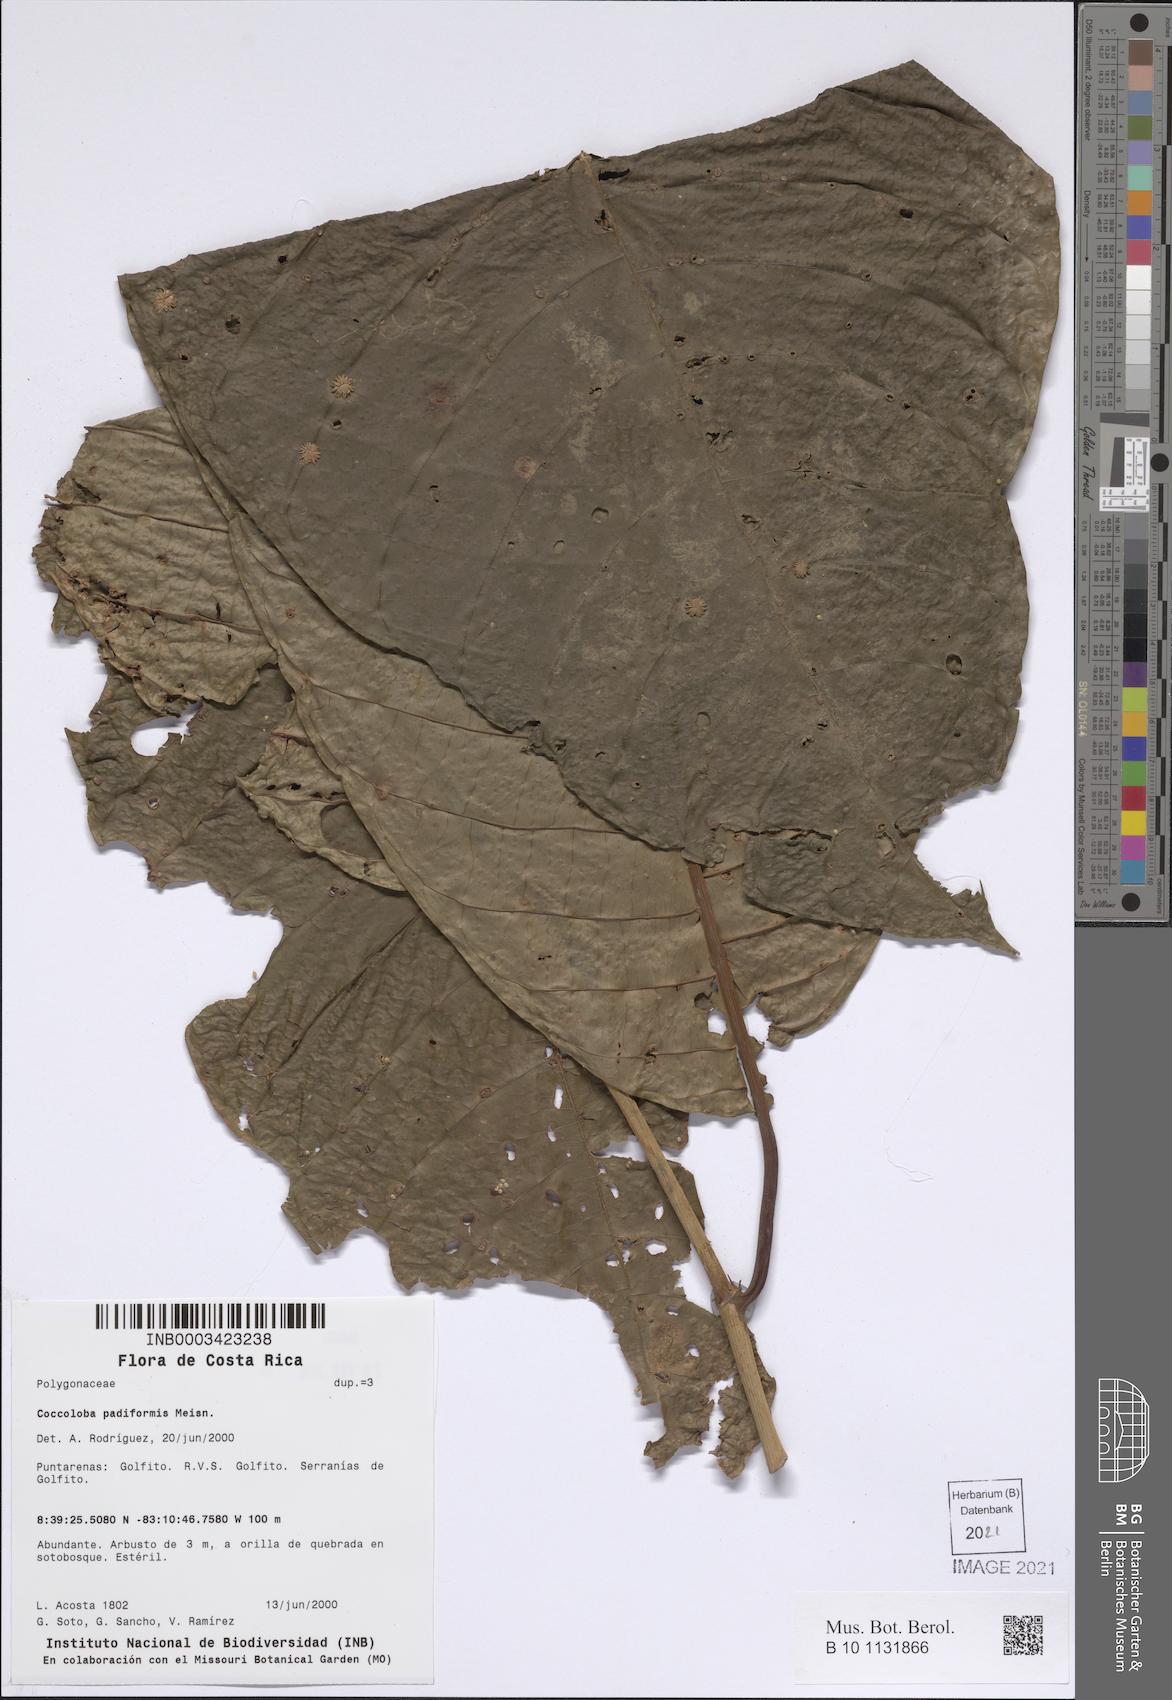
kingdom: Plantae
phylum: Tracheophyta
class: Magnoliopsida
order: Caryophyllales
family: Polygonaceae
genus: Coccoloba
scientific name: Coccoloba padiformis
